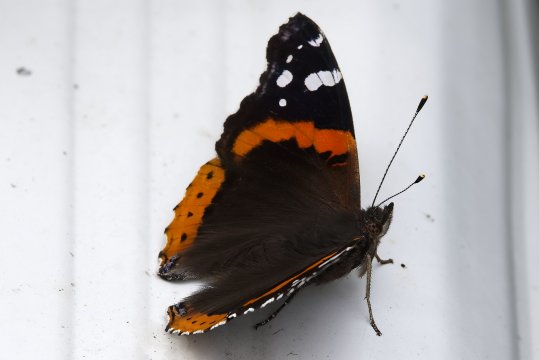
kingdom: Animalia
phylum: Arthropoda
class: Insecta
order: Lepidoptera
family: Nymphalidae
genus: Vanessa
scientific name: Vanessa atalanta
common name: Red Admiral
